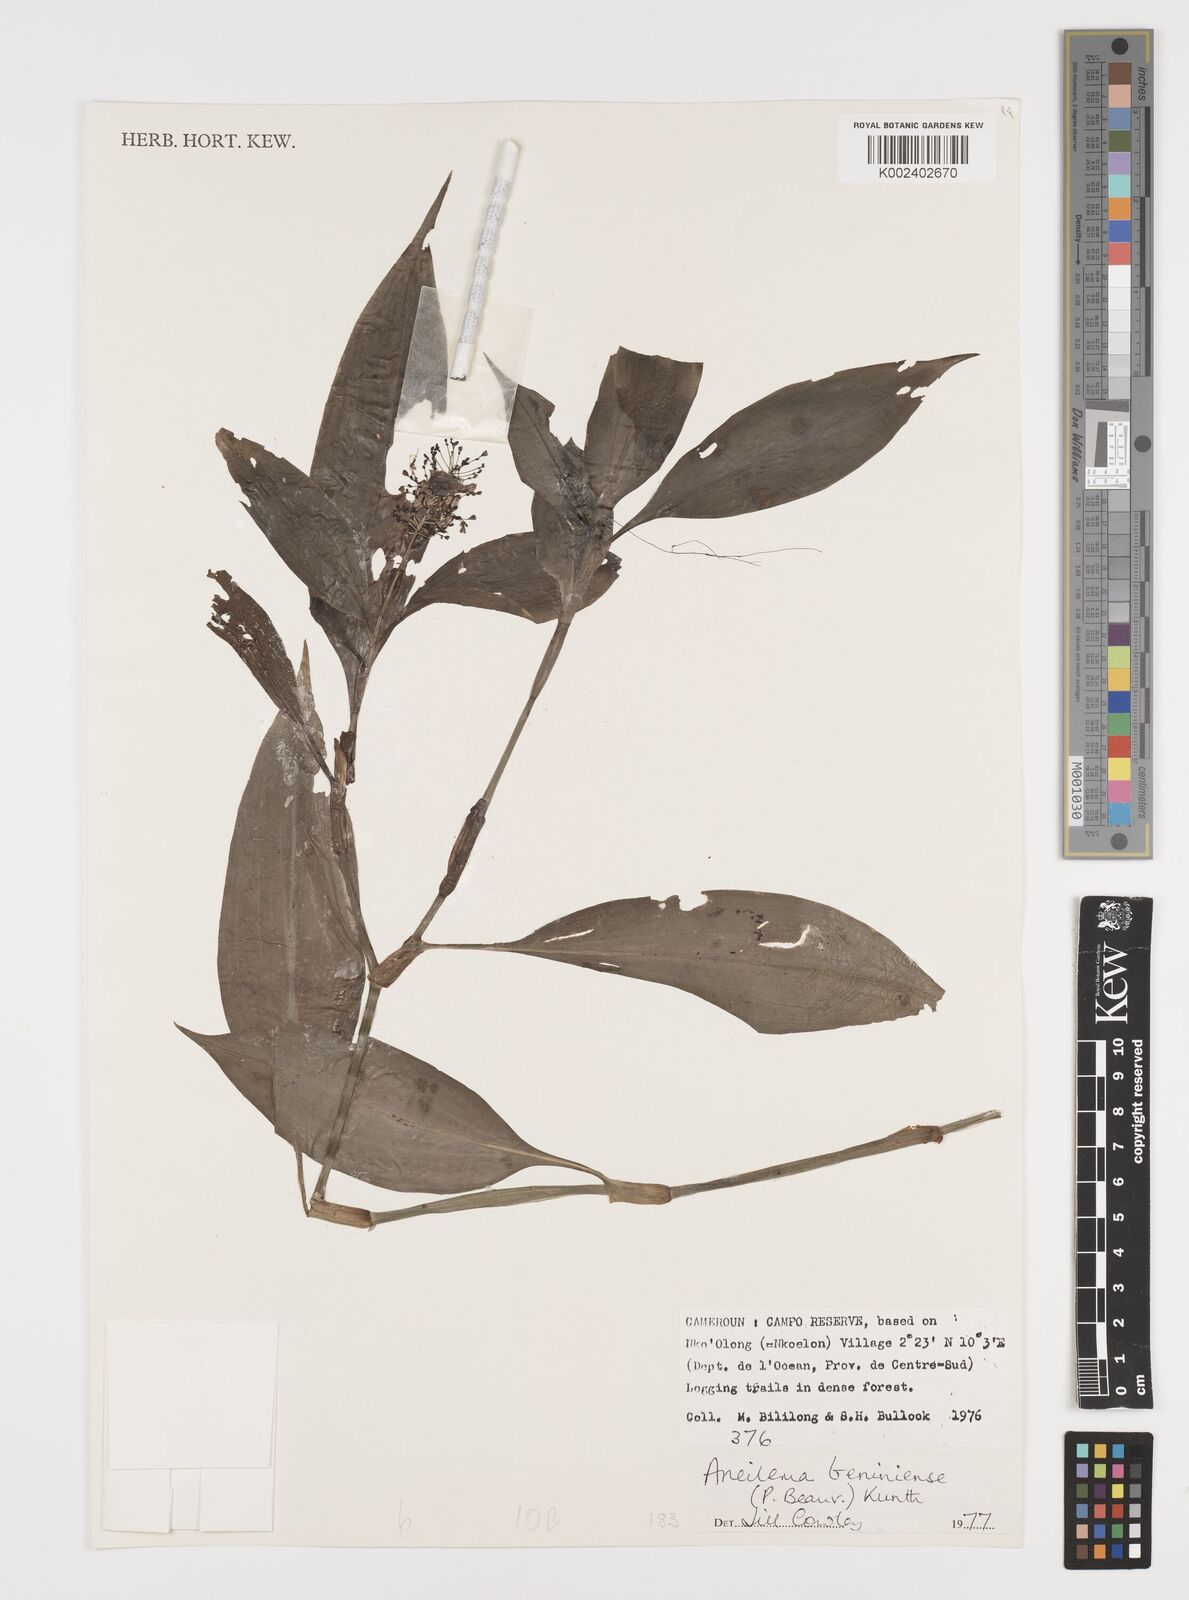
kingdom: Plantae
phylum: Tracheophyta
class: Liliopsida
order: Commelinales
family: Commelinaceae
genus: Aneilema
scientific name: Aneilema beniniense
